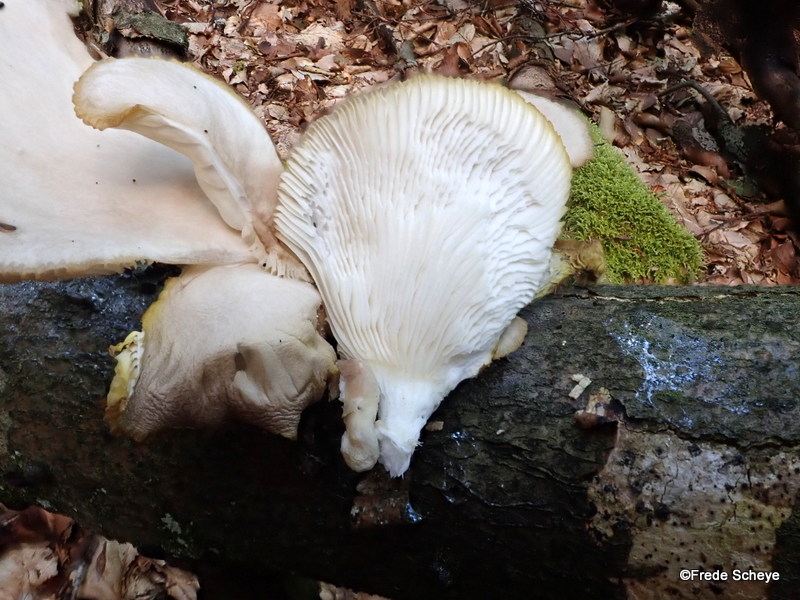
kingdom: Fungi
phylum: Basidiomycota
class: Agaricomycetes
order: Agaricales
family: Pleurotaceae
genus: Pleurotus
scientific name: Pleurotus pulmonarius
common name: sommer-østershat
